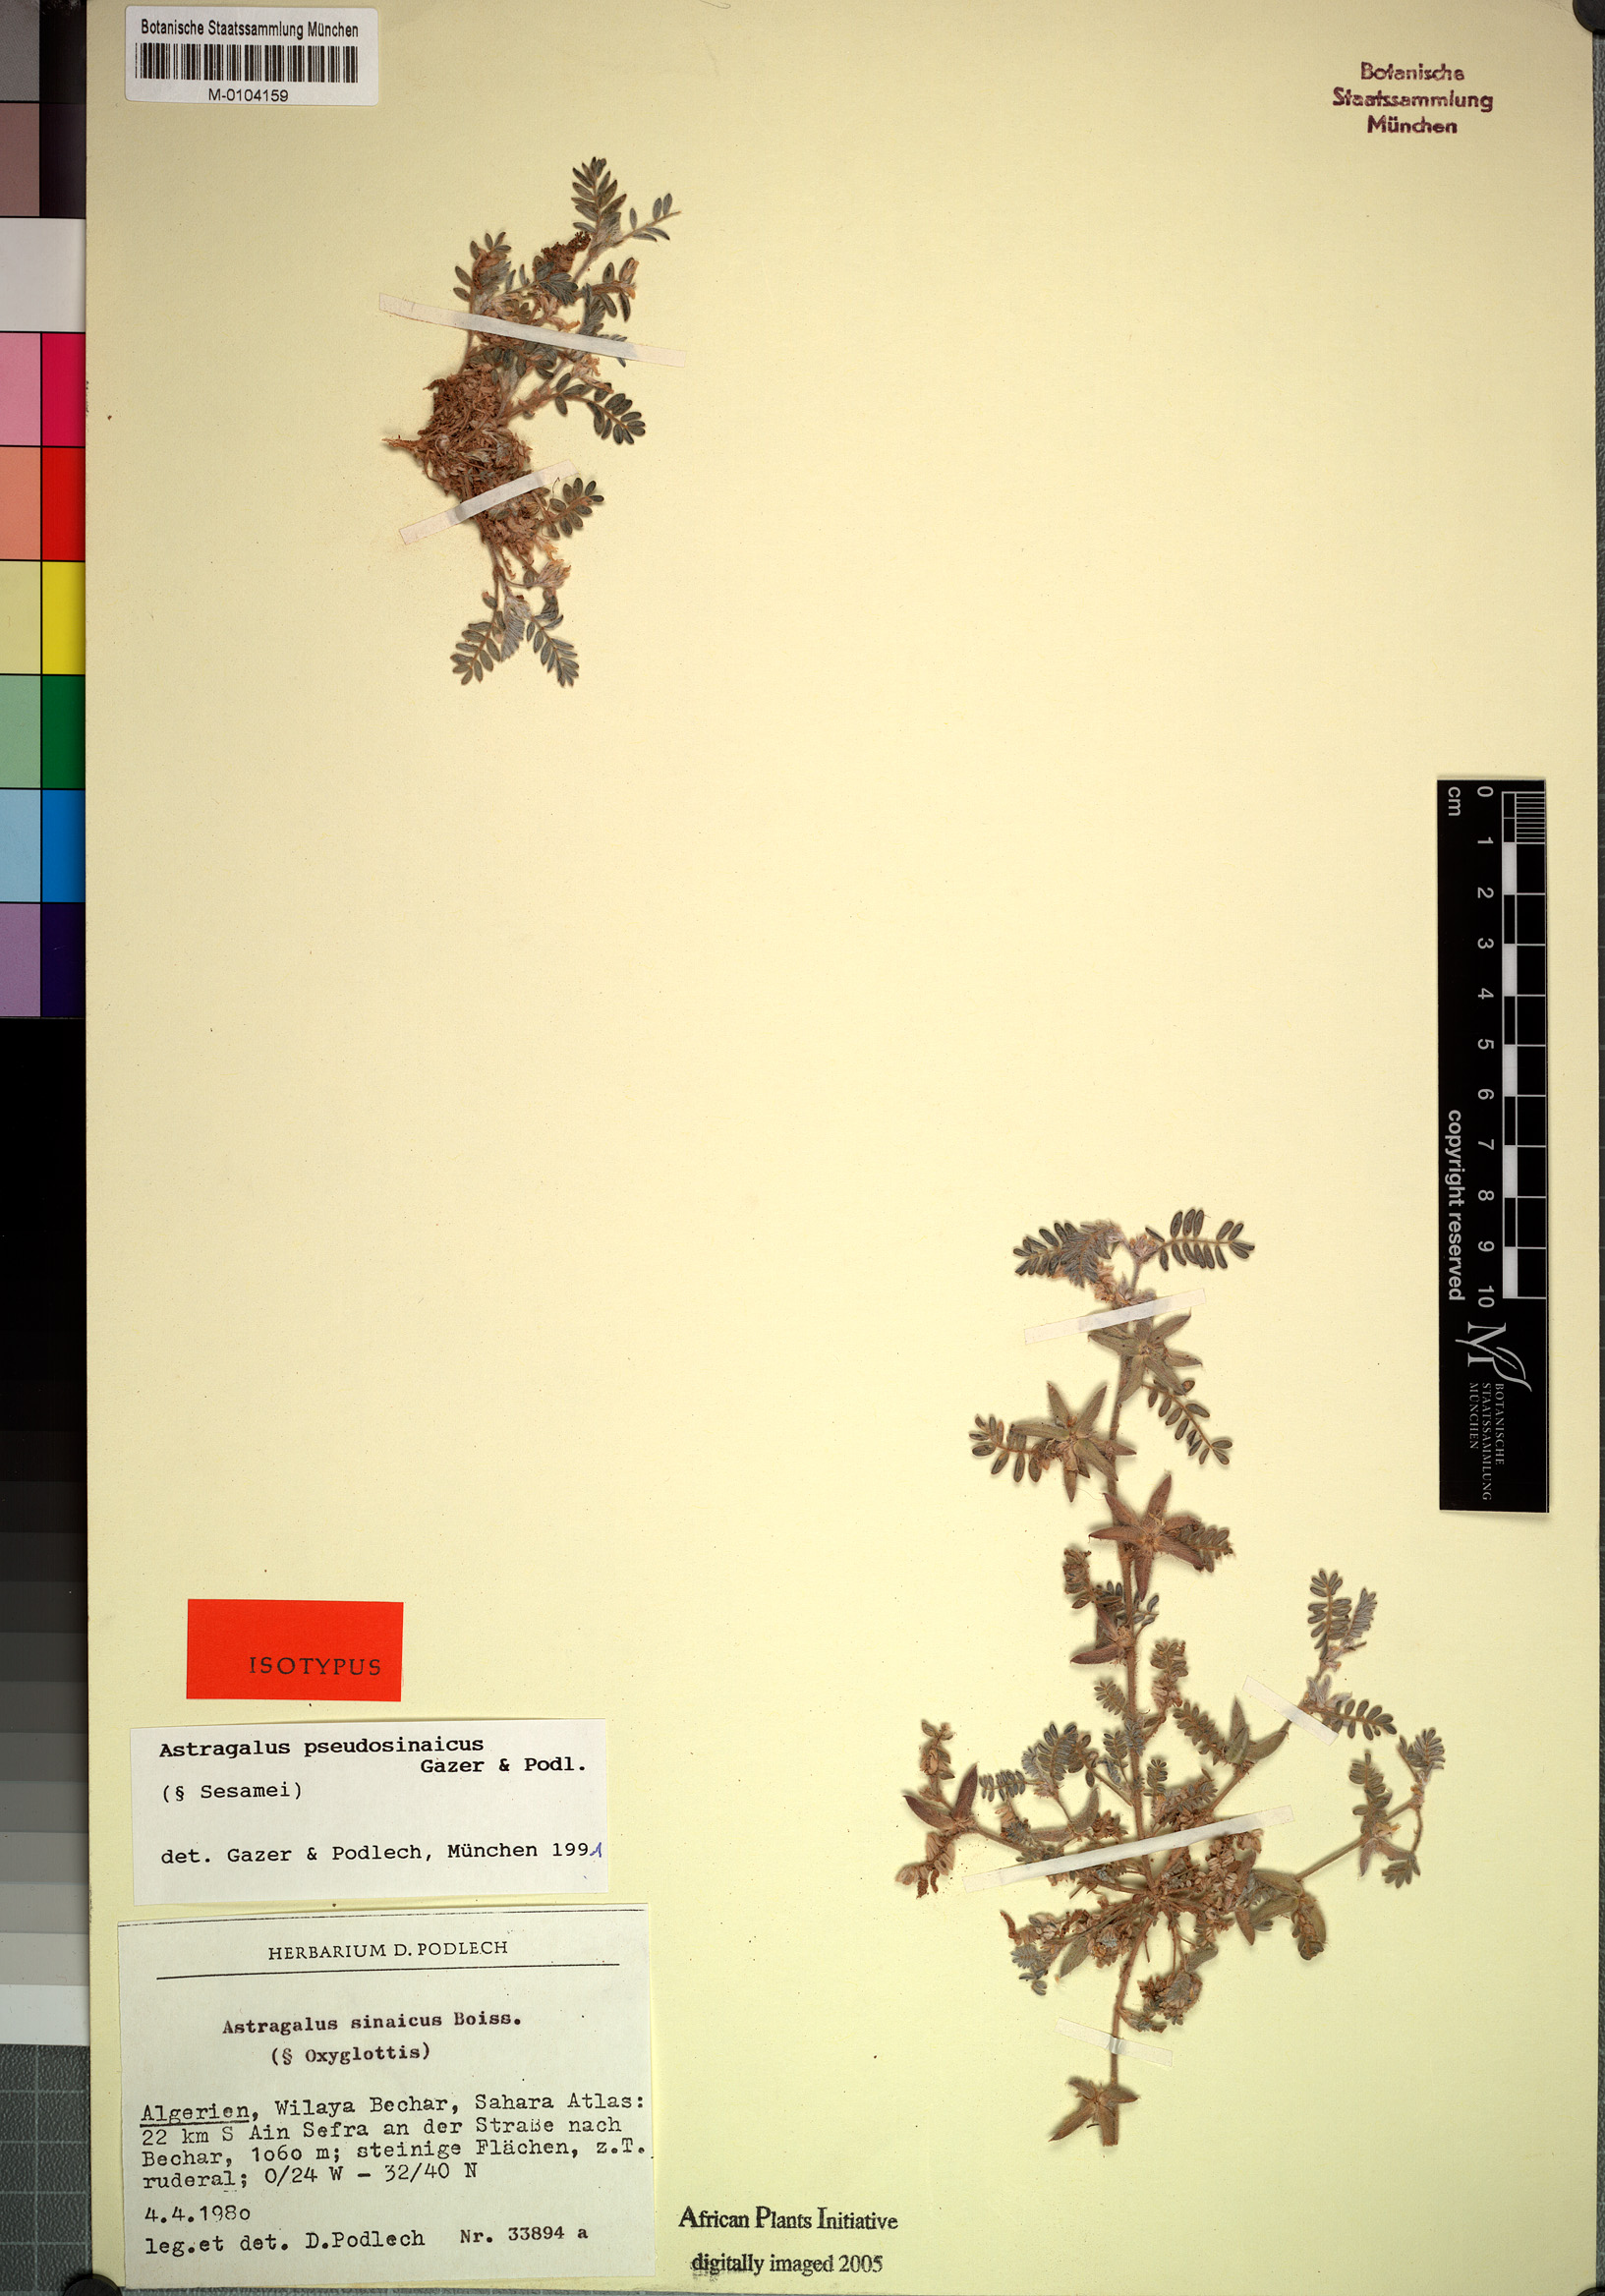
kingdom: Plantae
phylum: Tracheophyta
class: Magnoliopsida
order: Fabales
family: Fabaceae
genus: Astragalus
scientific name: Astragalus pseudosinaicus
